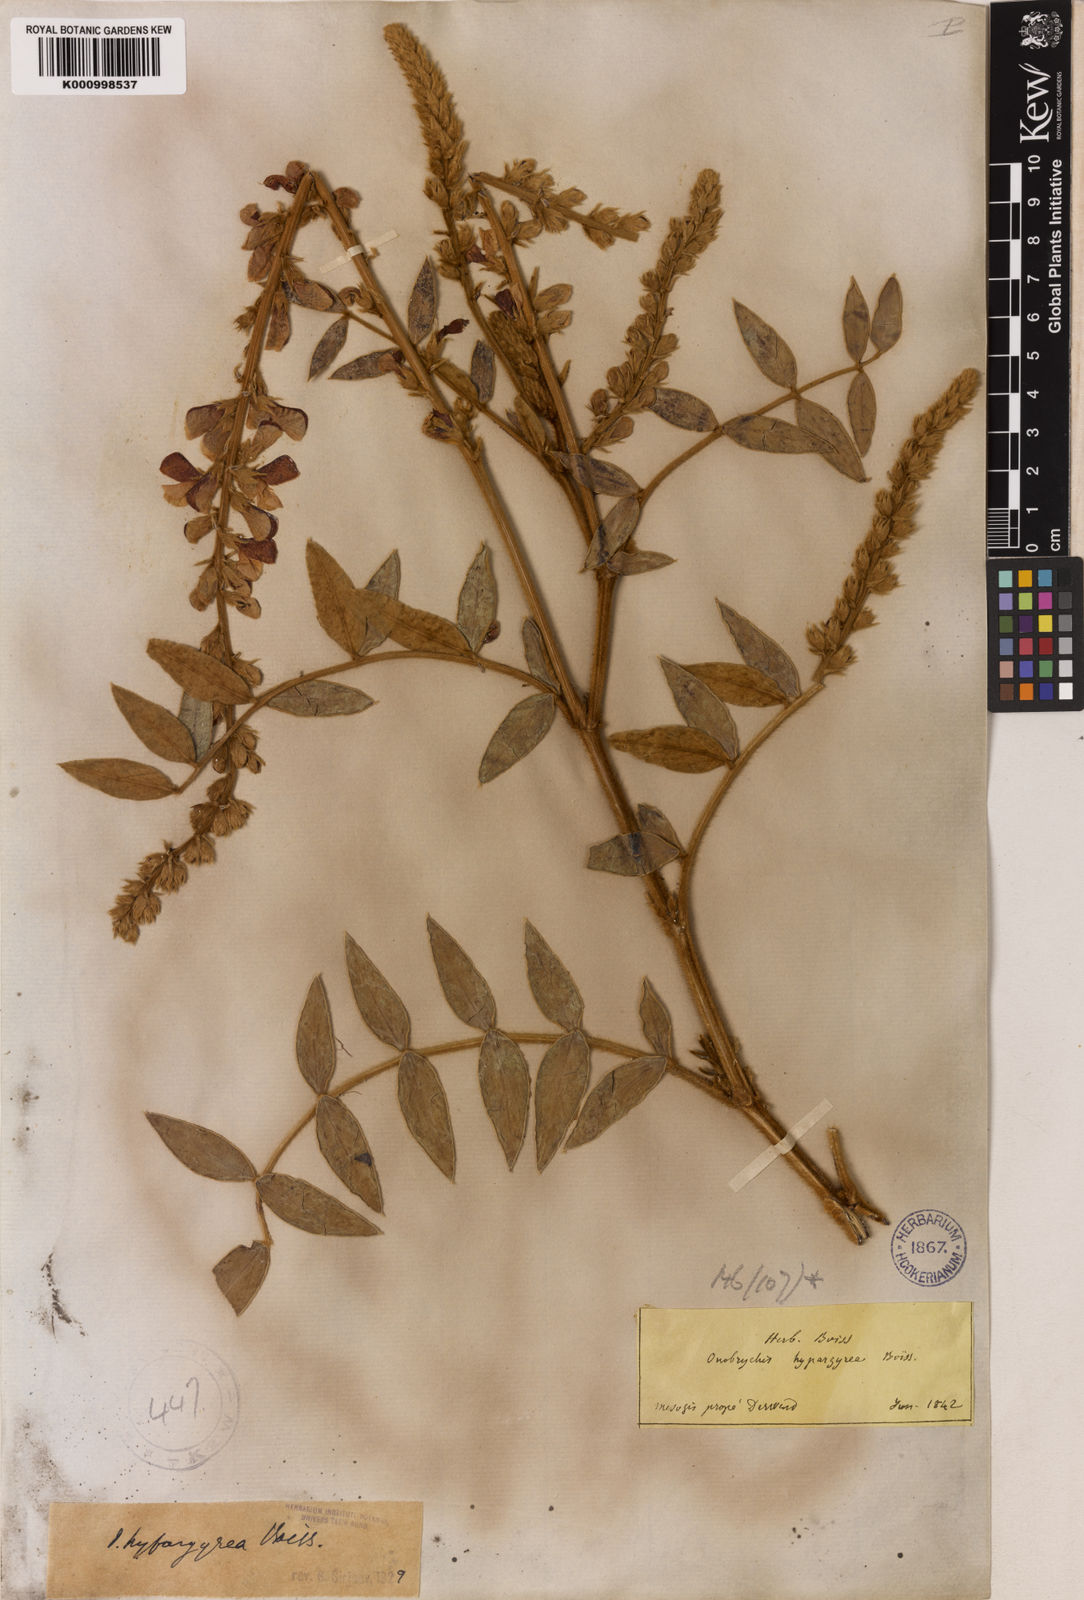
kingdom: Plantae
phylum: Tracheophyta
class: Magnoliopsida
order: Fabales
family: Fabaceae
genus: Onobrychis
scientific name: Onobrychis hypargyrea
